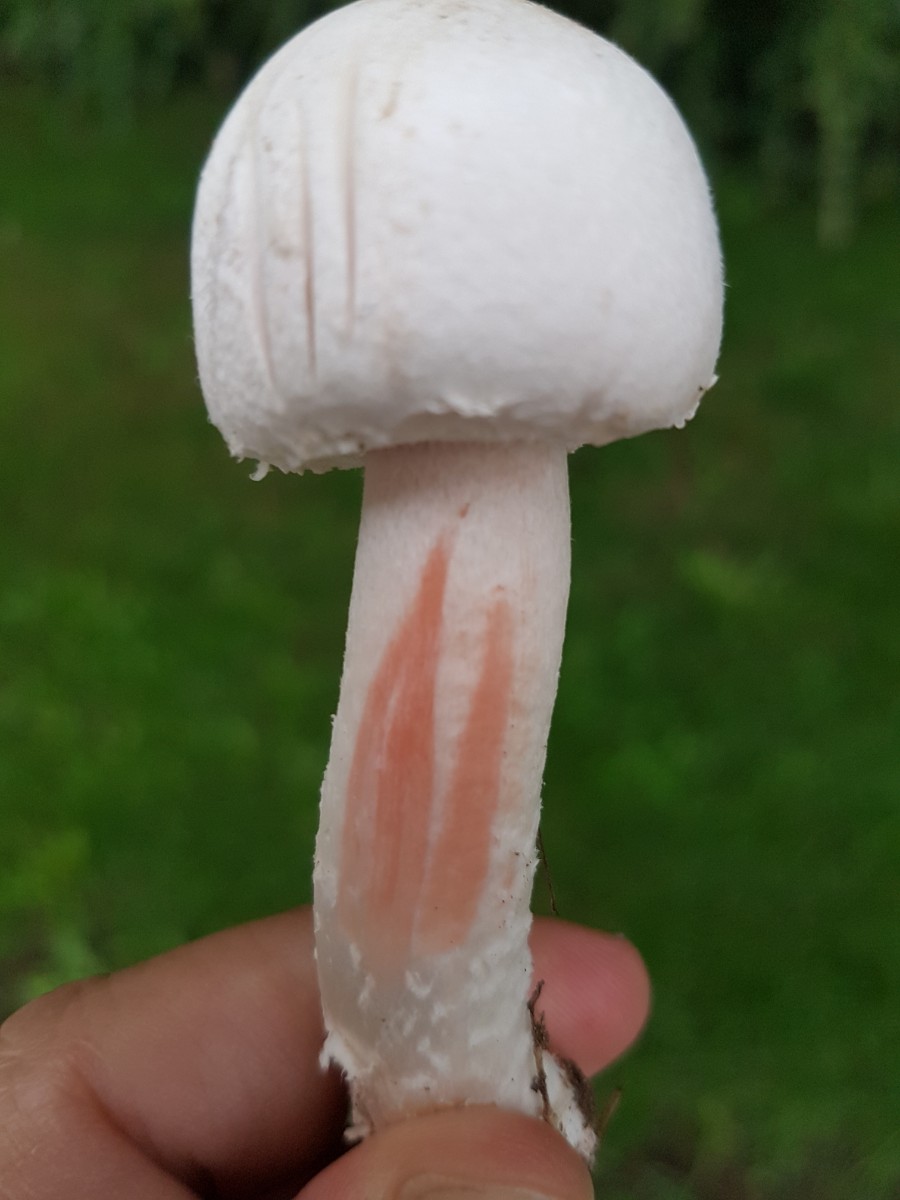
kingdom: Fungi
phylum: Basidiomycota
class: Agaricomycetes
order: Agaricales
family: Agaricaceae
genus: Agaricus
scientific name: Agaricus benesii
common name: hvid blod-champignon
